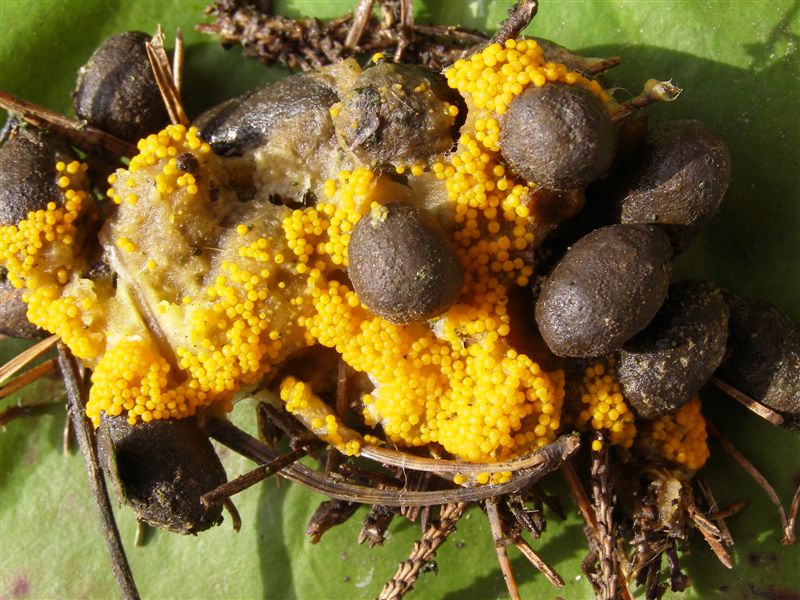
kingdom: Fungi
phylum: Ascomycota
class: Pezizomycetes
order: Pezizales
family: Pyronemataceae
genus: Byssonectria
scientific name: Byssonectria terrestris
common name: hjortebæger
